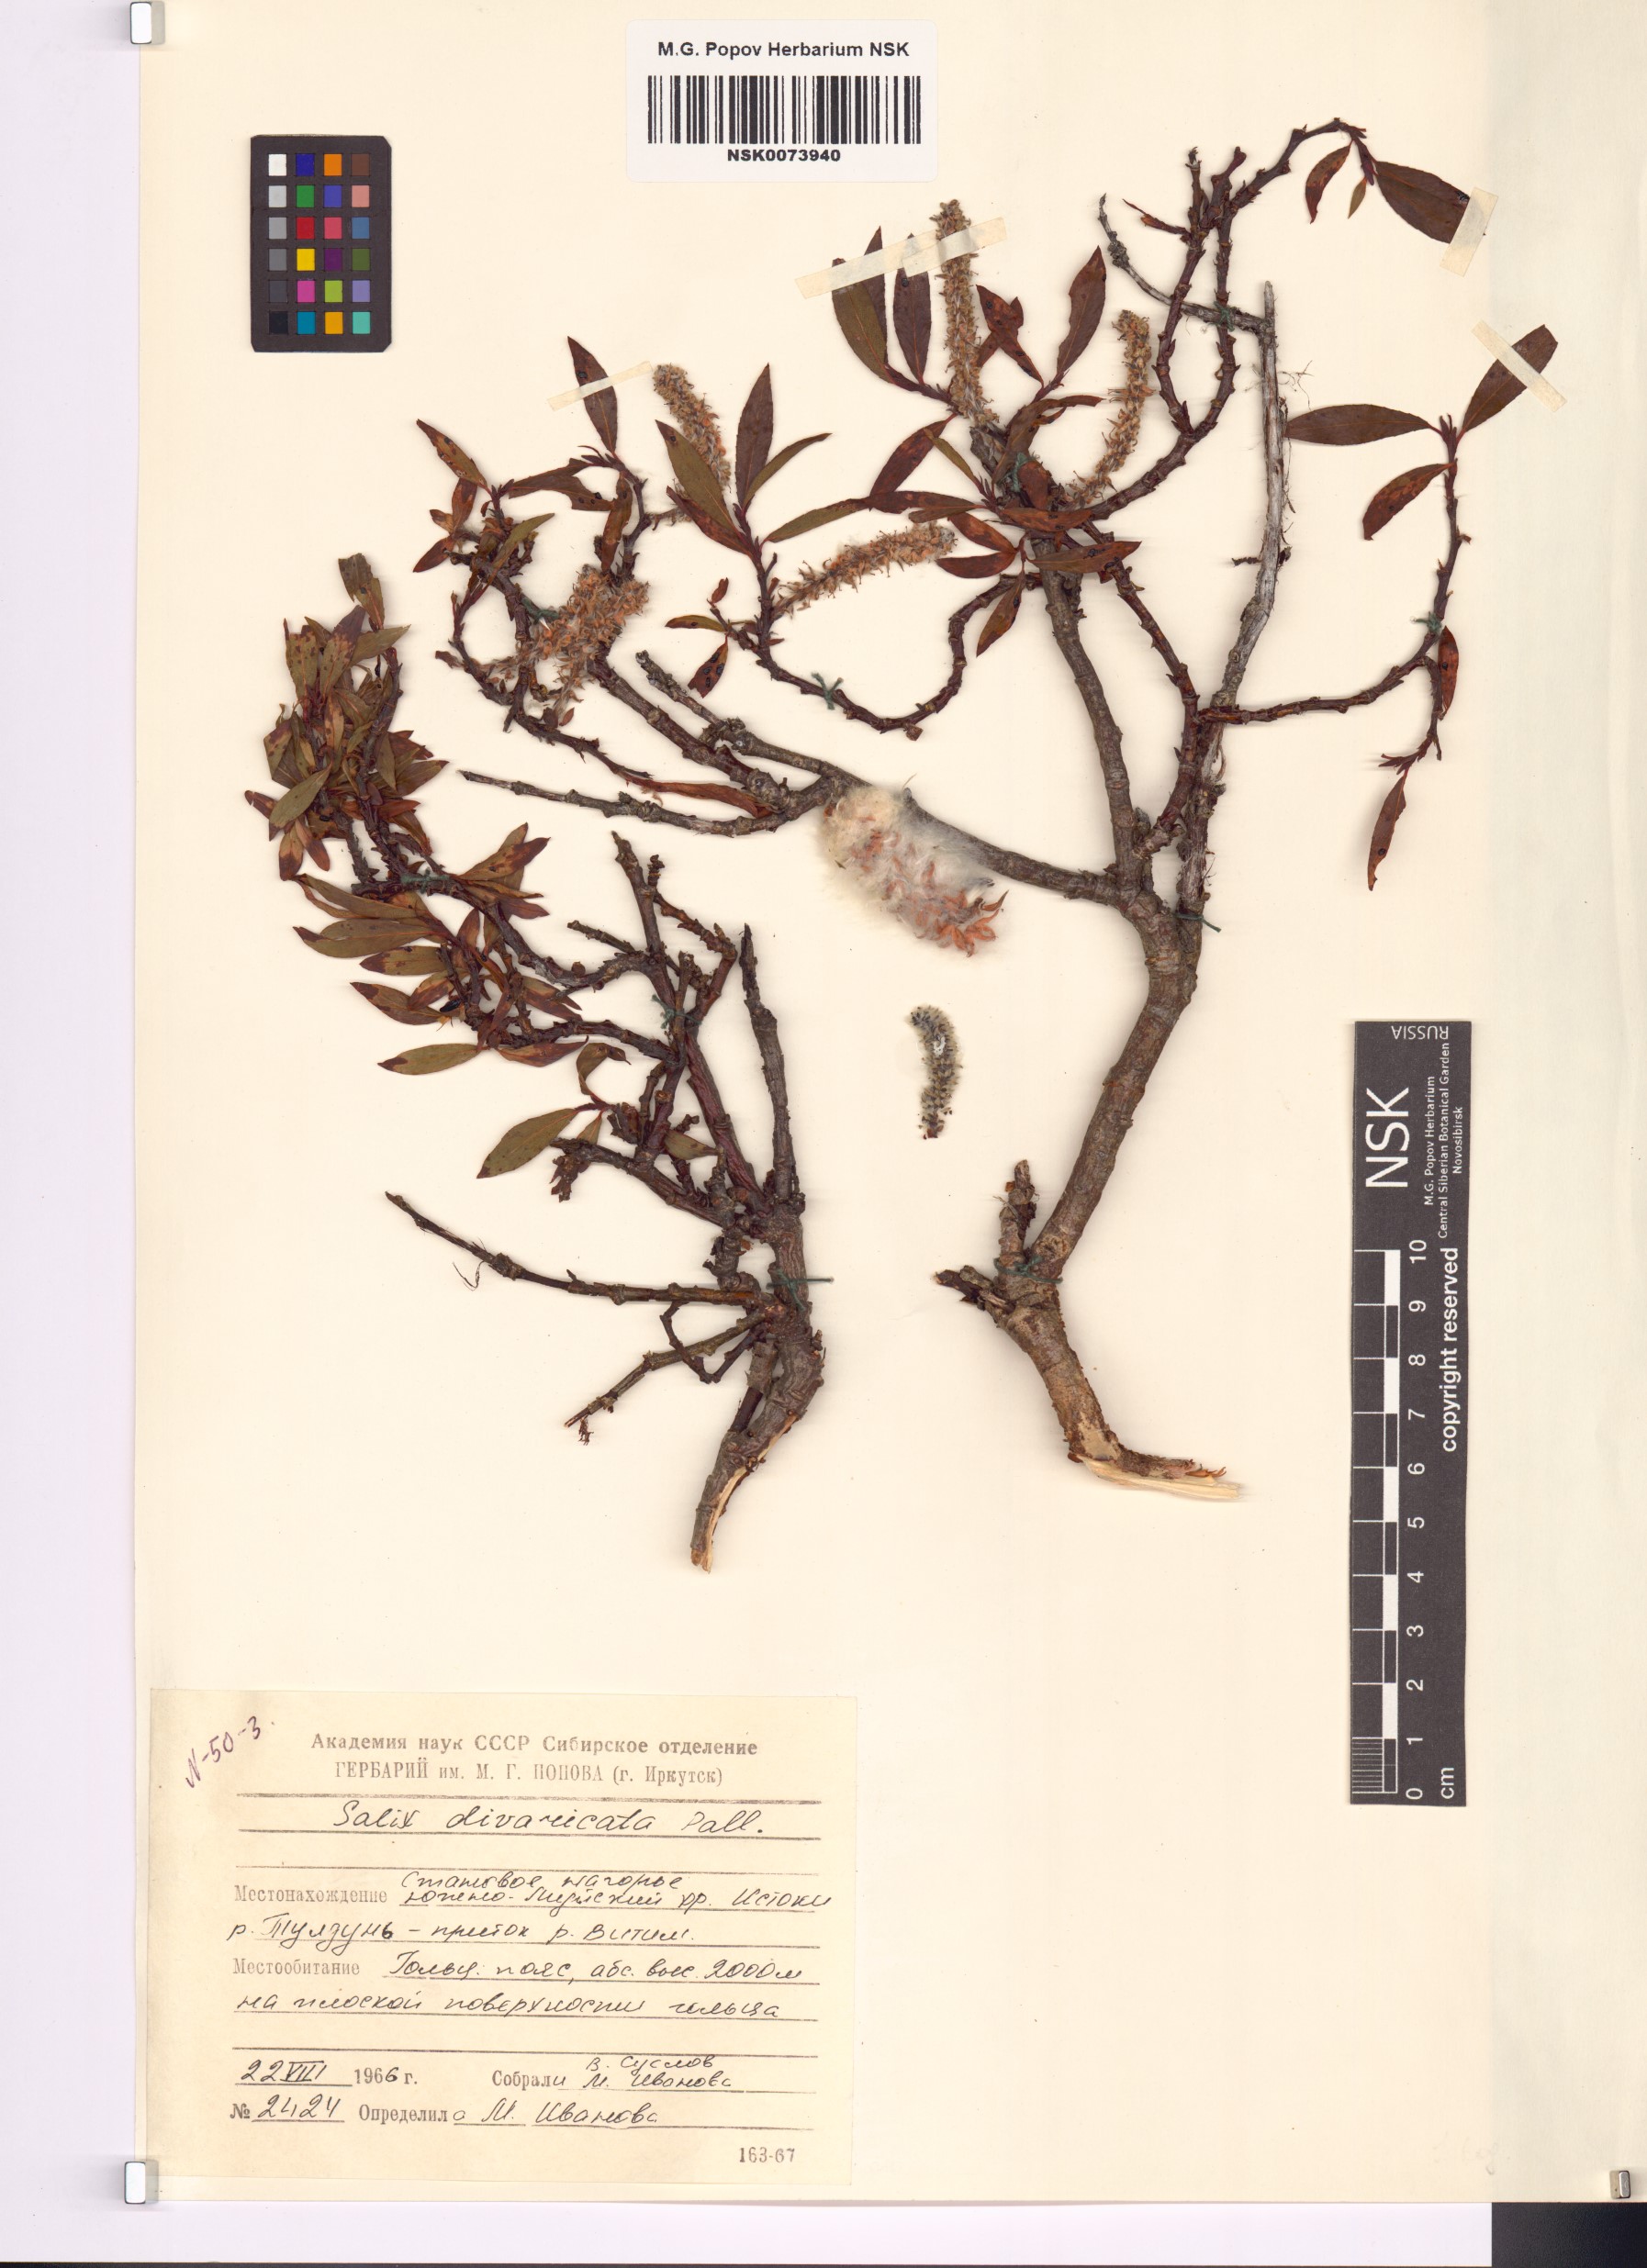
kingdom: Plantae
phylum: Tracheophyta
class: Magnoliopsida
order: Malpighiales
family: Salicaceae
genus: Salix
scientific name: Salix divaricata
